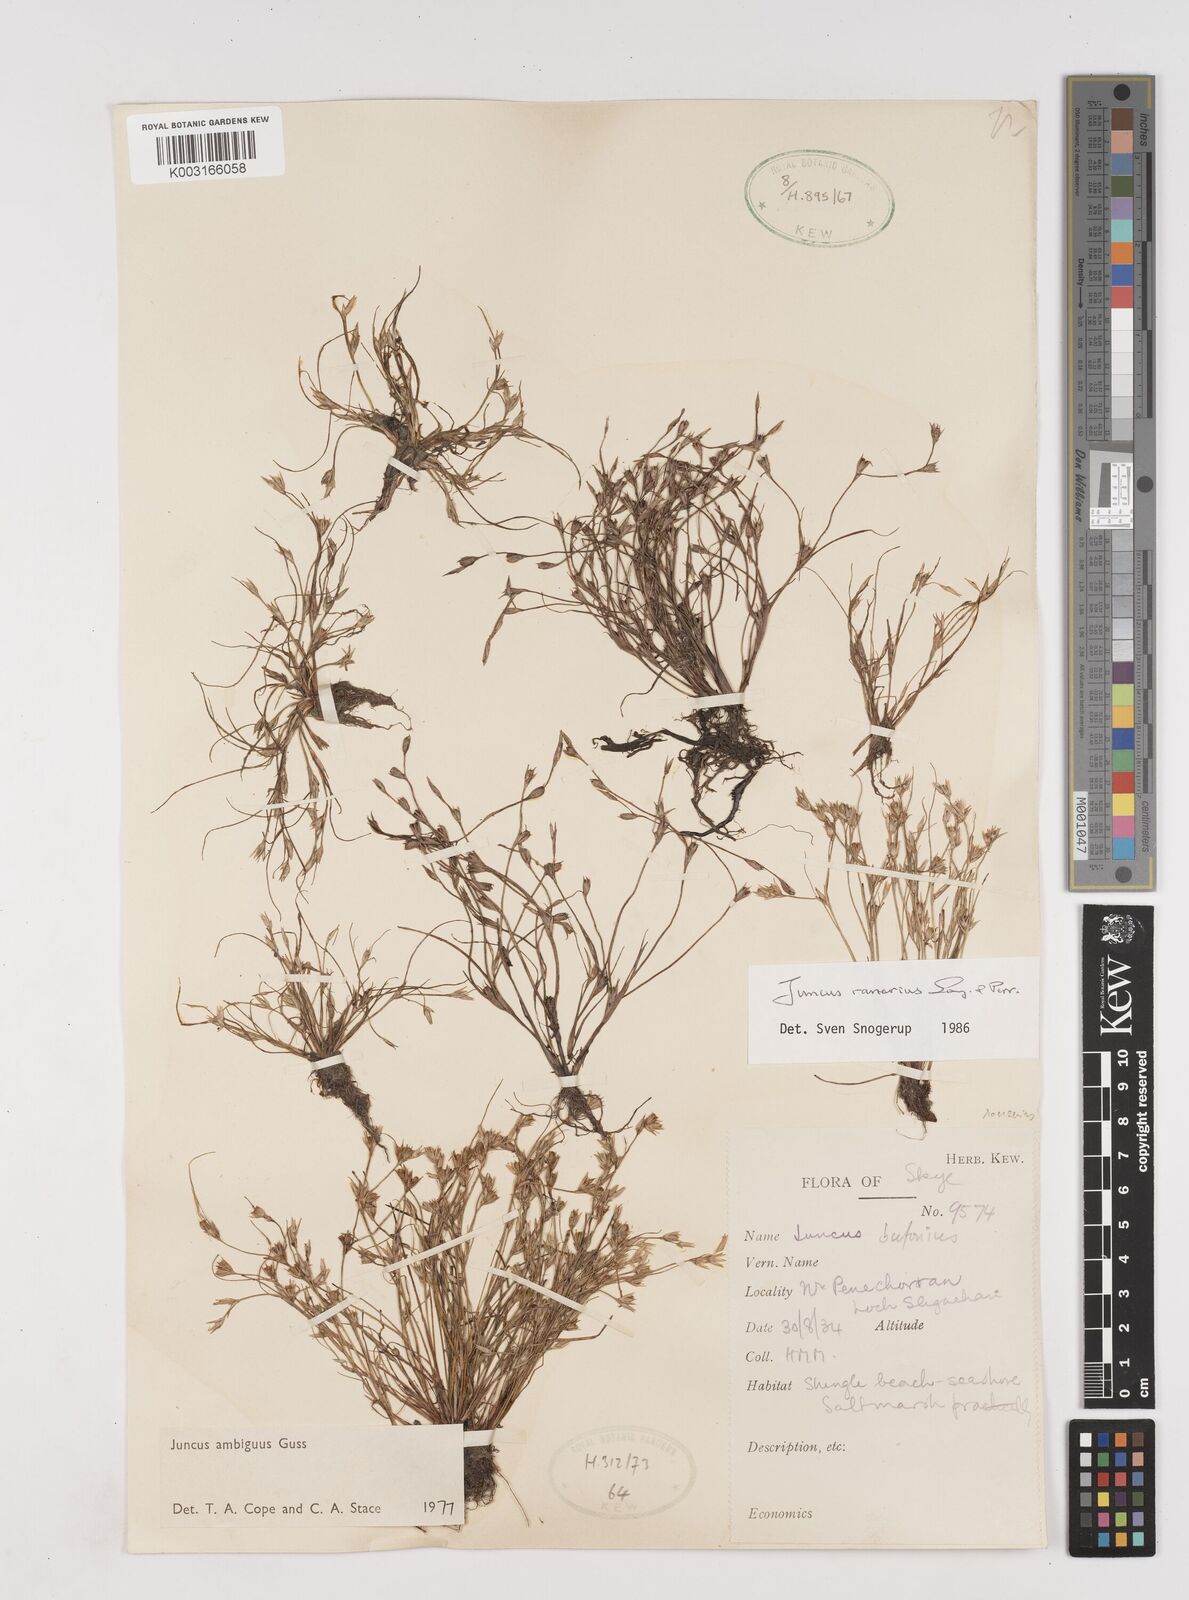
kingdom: Plantae
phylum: Tracheophyta
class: Liliopsida
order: Poales
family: Juncaceae
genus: Juncus
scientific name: Juncus hybridus
